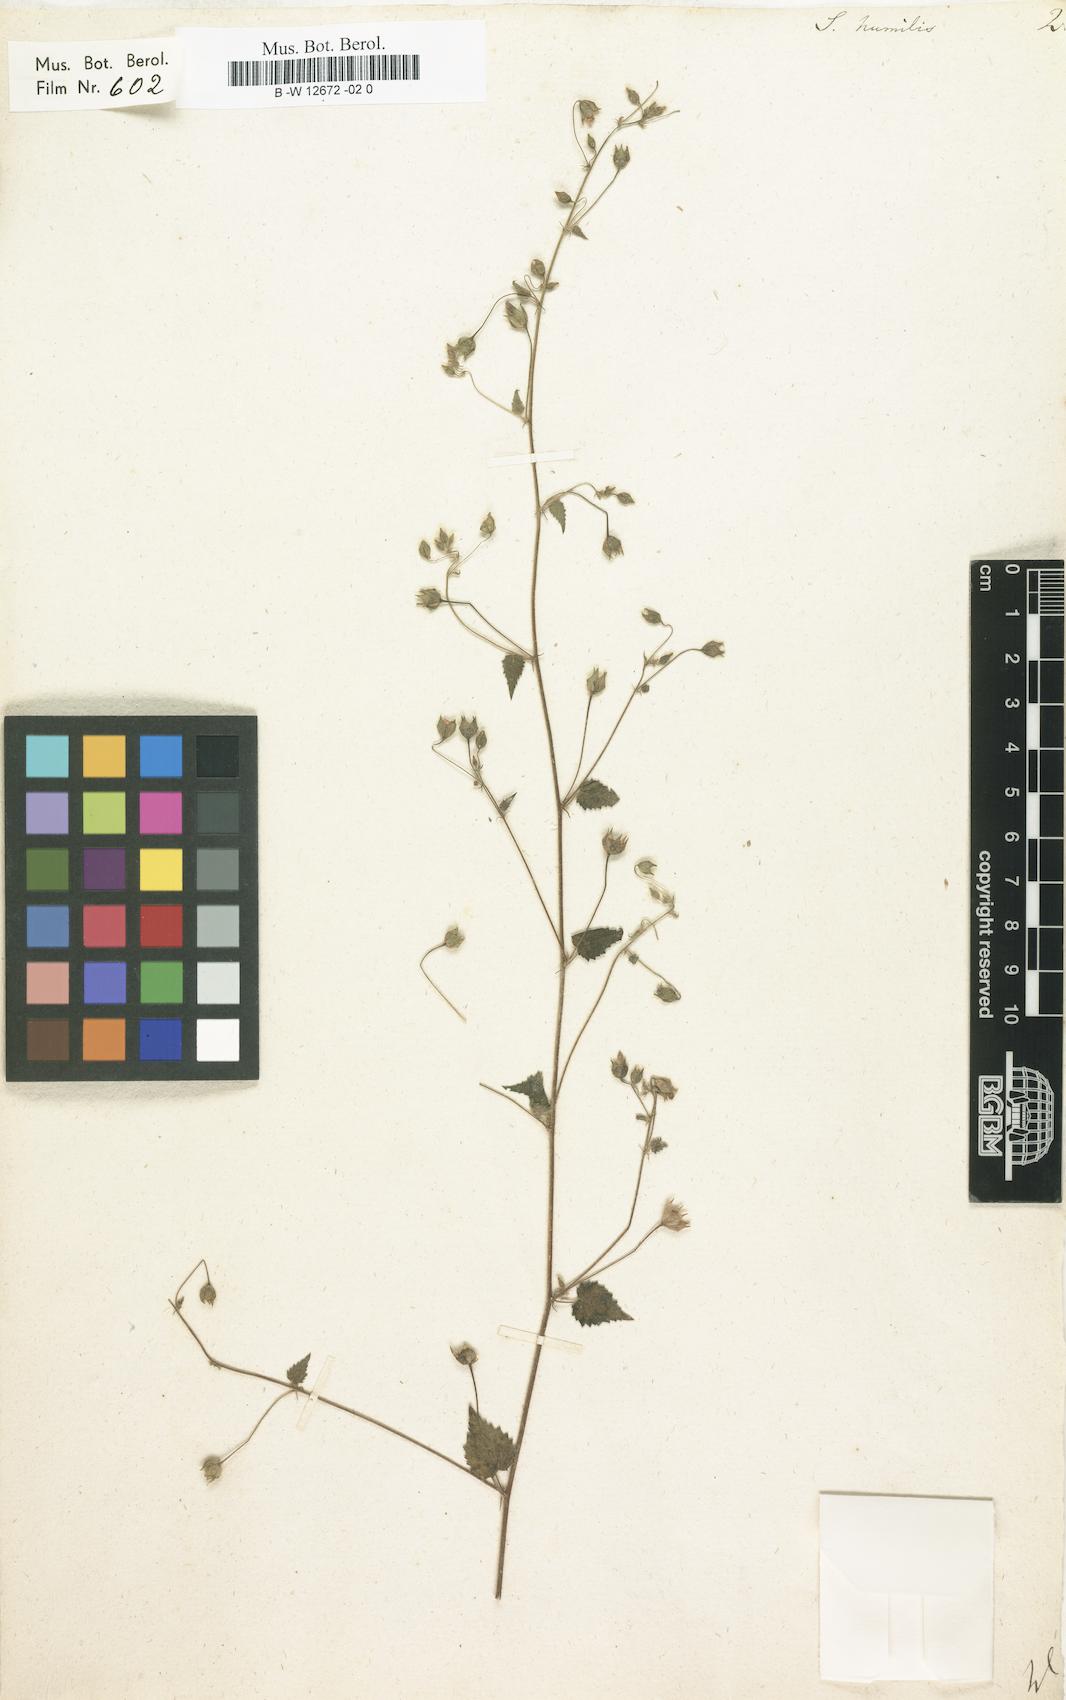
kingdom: Plantae
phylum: Tracheophyta
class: Magnoliopsida
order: Malvales
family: Malvaceae
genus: Sida
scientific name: Sida cordata
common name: Long-stalk sida
